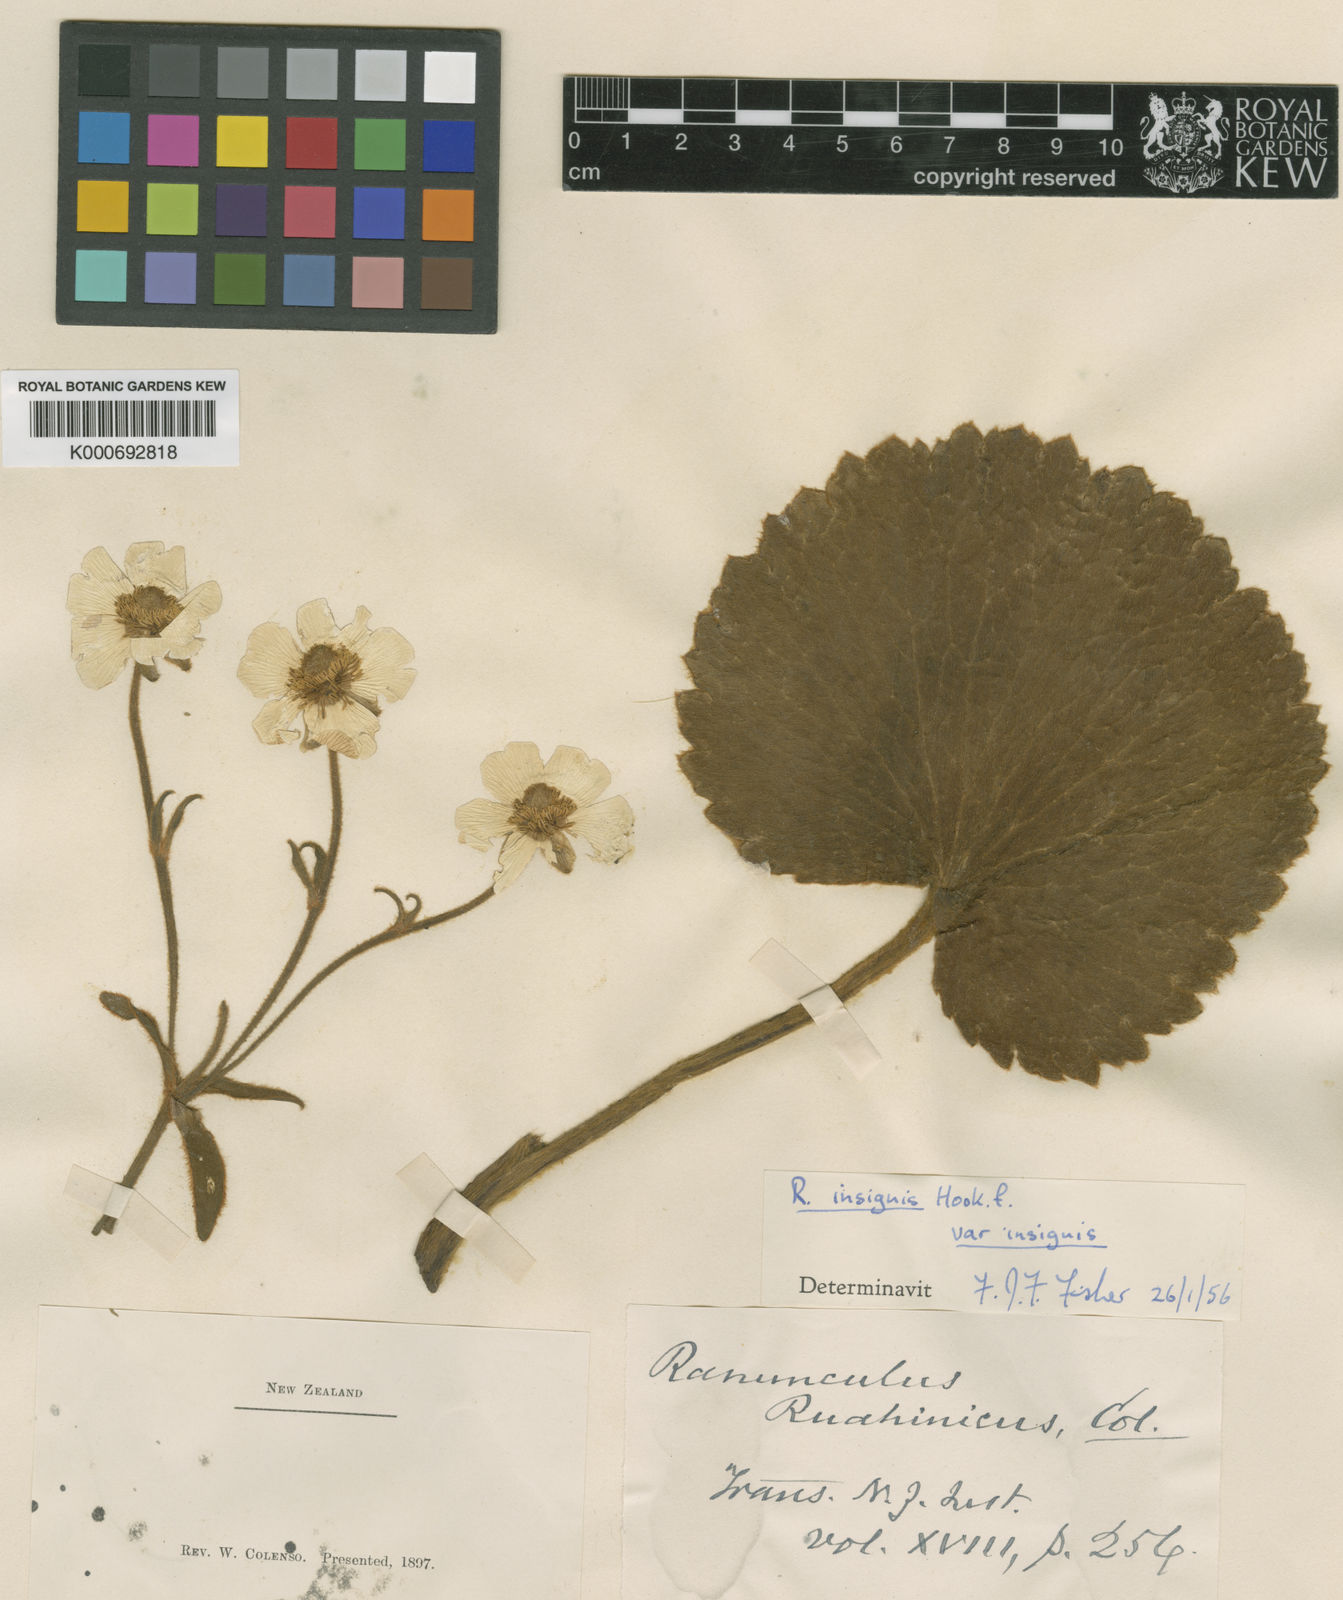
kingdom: Plantae
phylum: Tracheophyta
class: Magnoliopsida
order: Ranunculales
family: Ranunculaceae
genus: Ranunculus
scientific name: Ranunculus insignis
